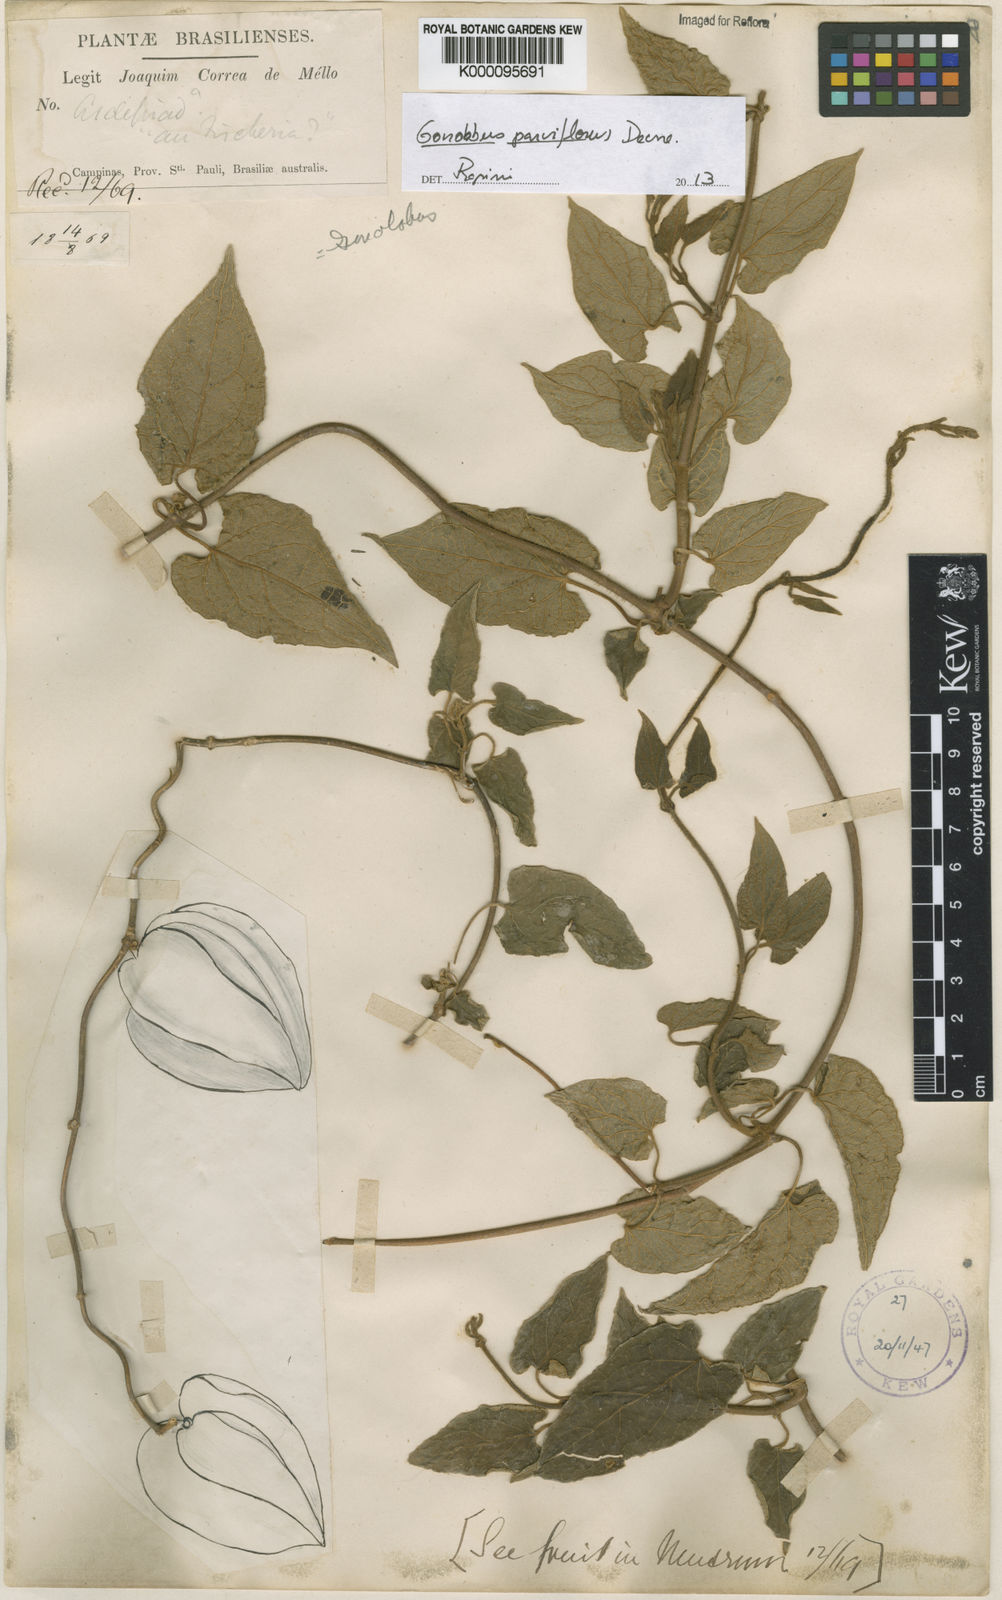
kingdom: Plantae
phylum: Tracheophyta
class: Magnoliopsida
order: Gentianales
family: Apocynaceae
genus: Gonolobus
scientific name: Gonolobus parviflorus
